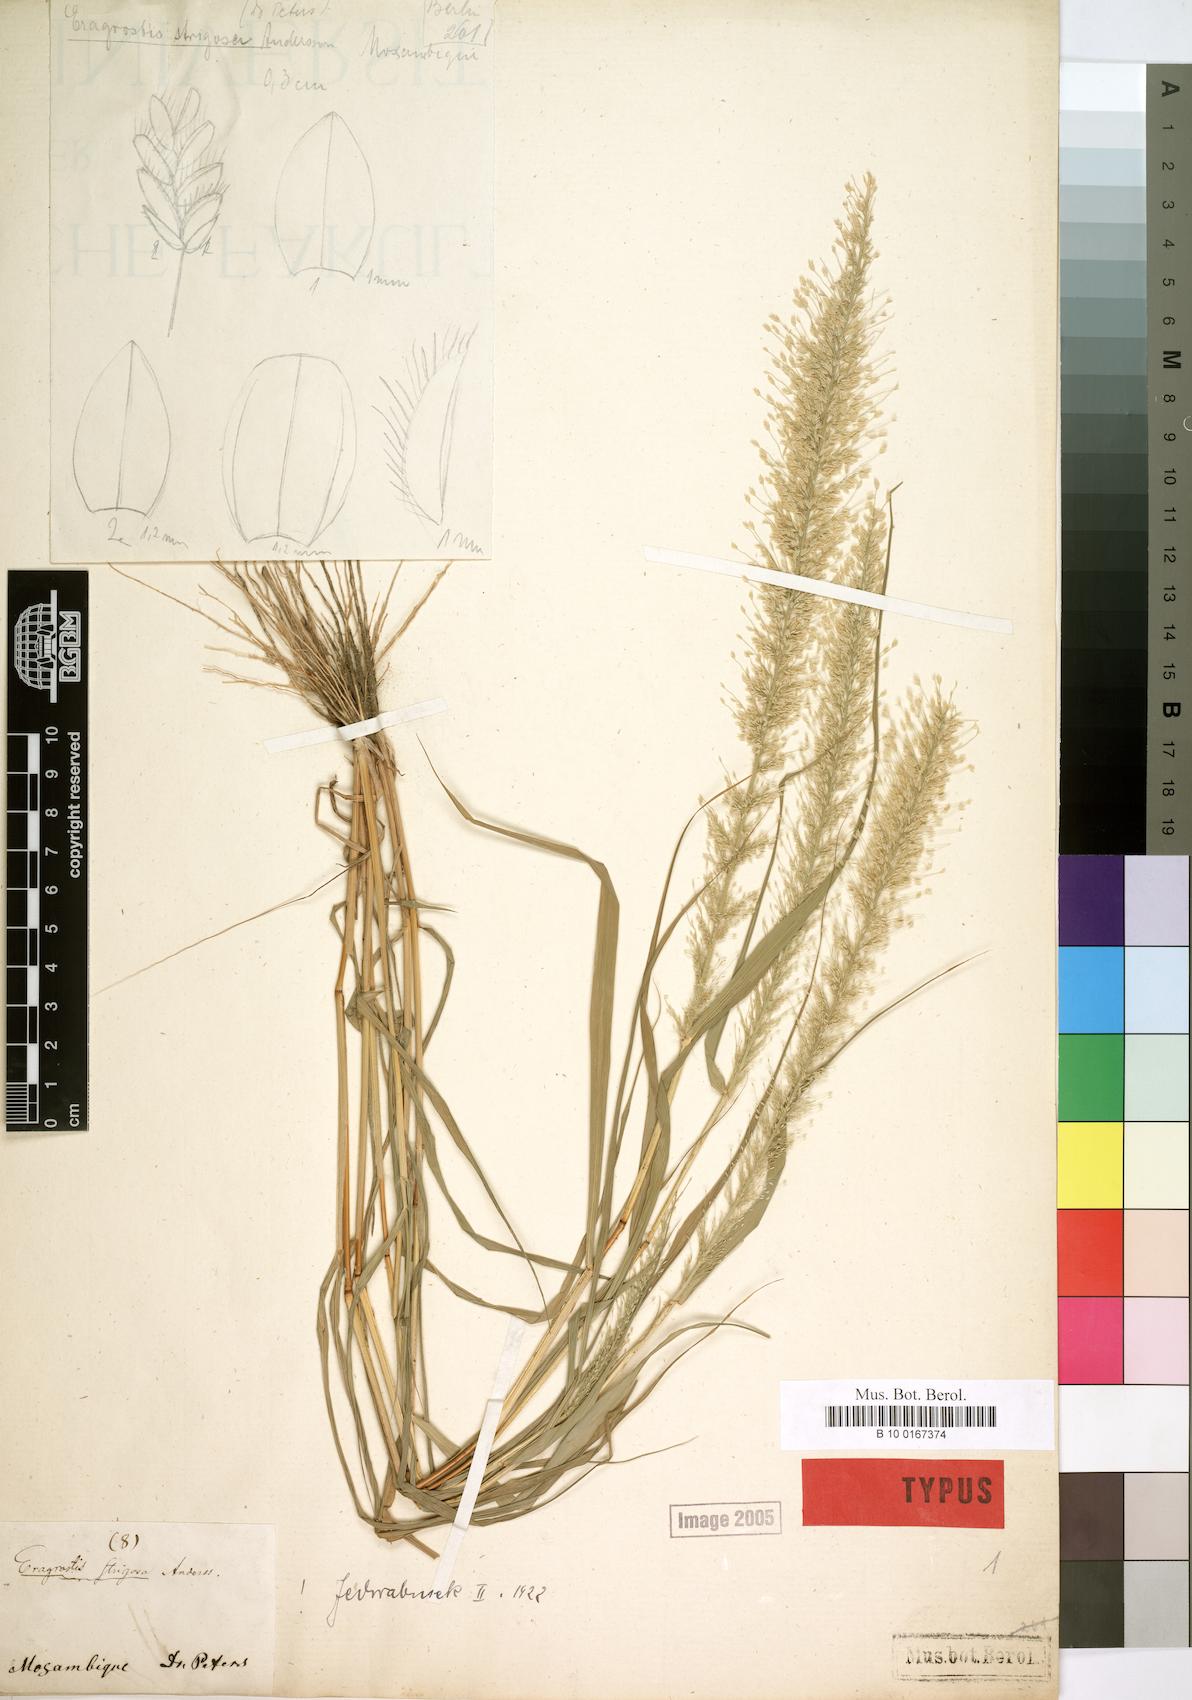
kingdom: Plantae
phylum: Tracheophyta
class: Liliopsida
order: Poales
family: Poaceae
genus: Eragrostis
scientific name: Eragrostis viscosa
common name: Sticky love grass
